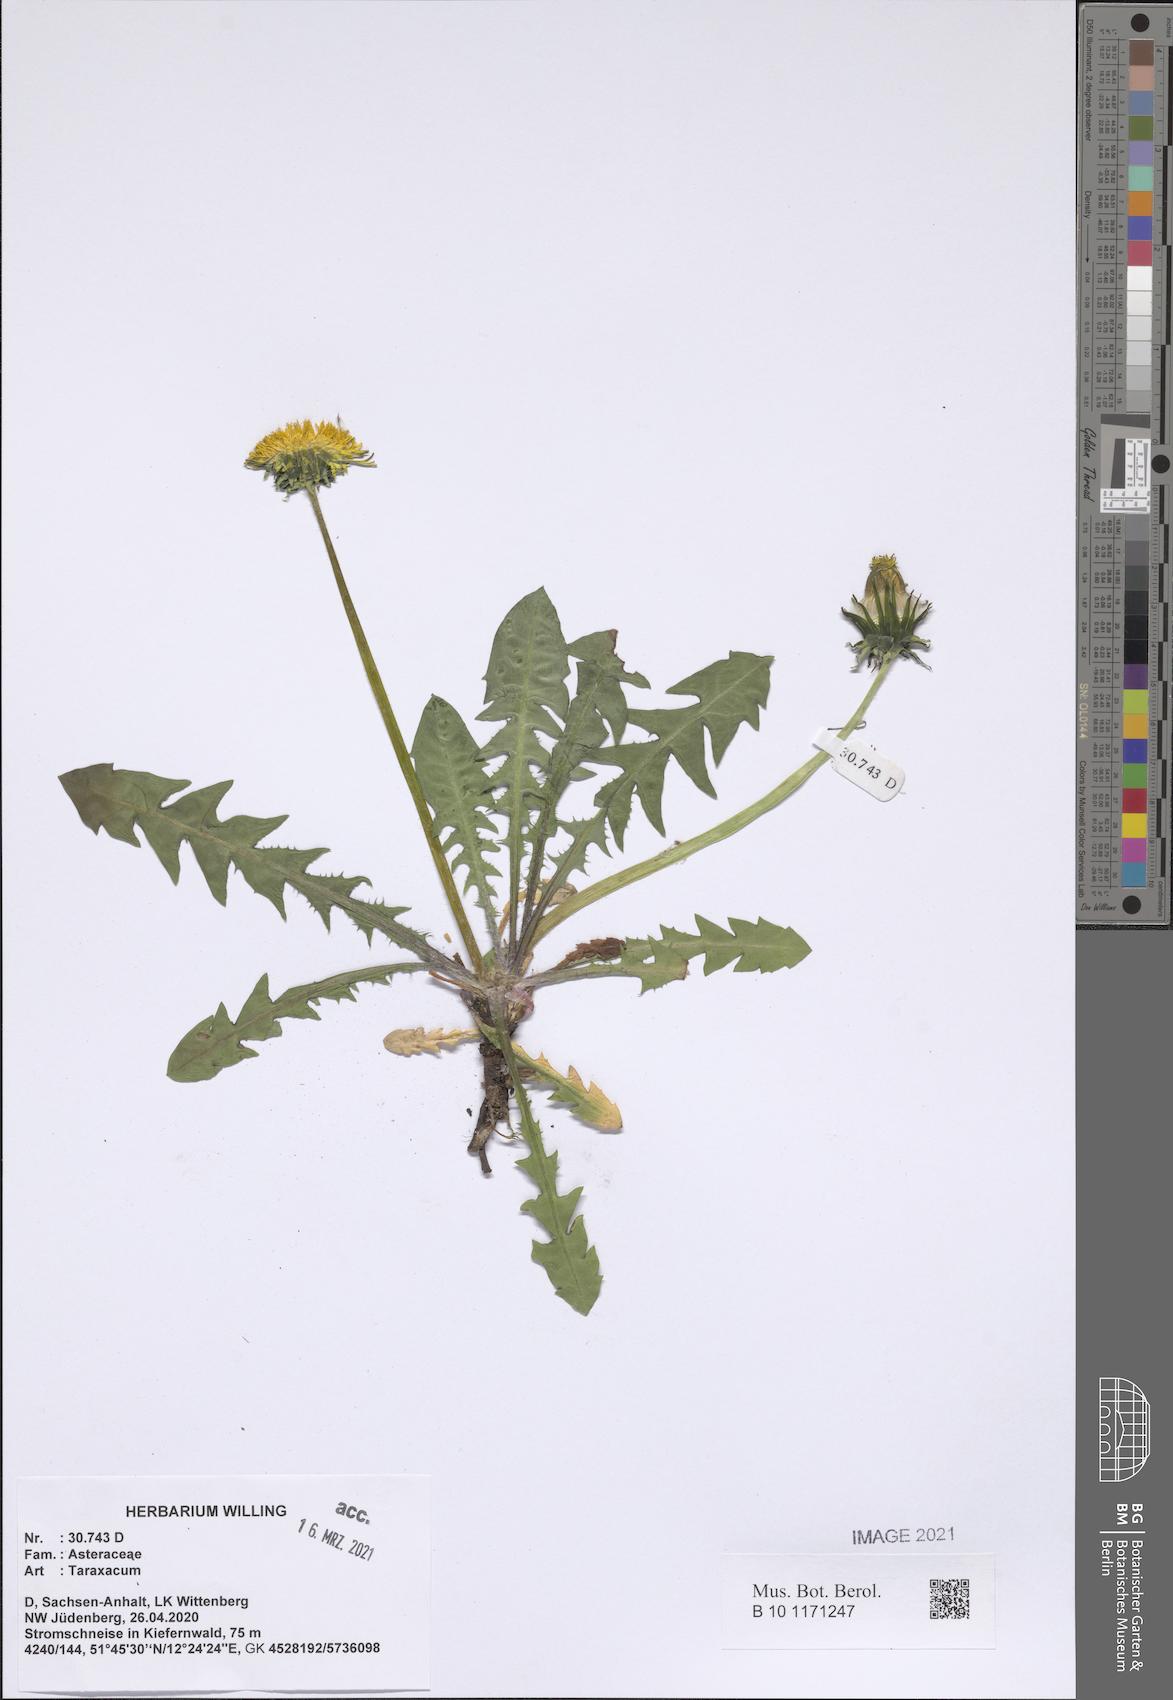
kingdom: Plantae
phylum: Tracheophyta
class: Magnoliopsida
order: Asterales
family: Asteraceae
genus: Taraxacum
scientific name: Taraxacum
